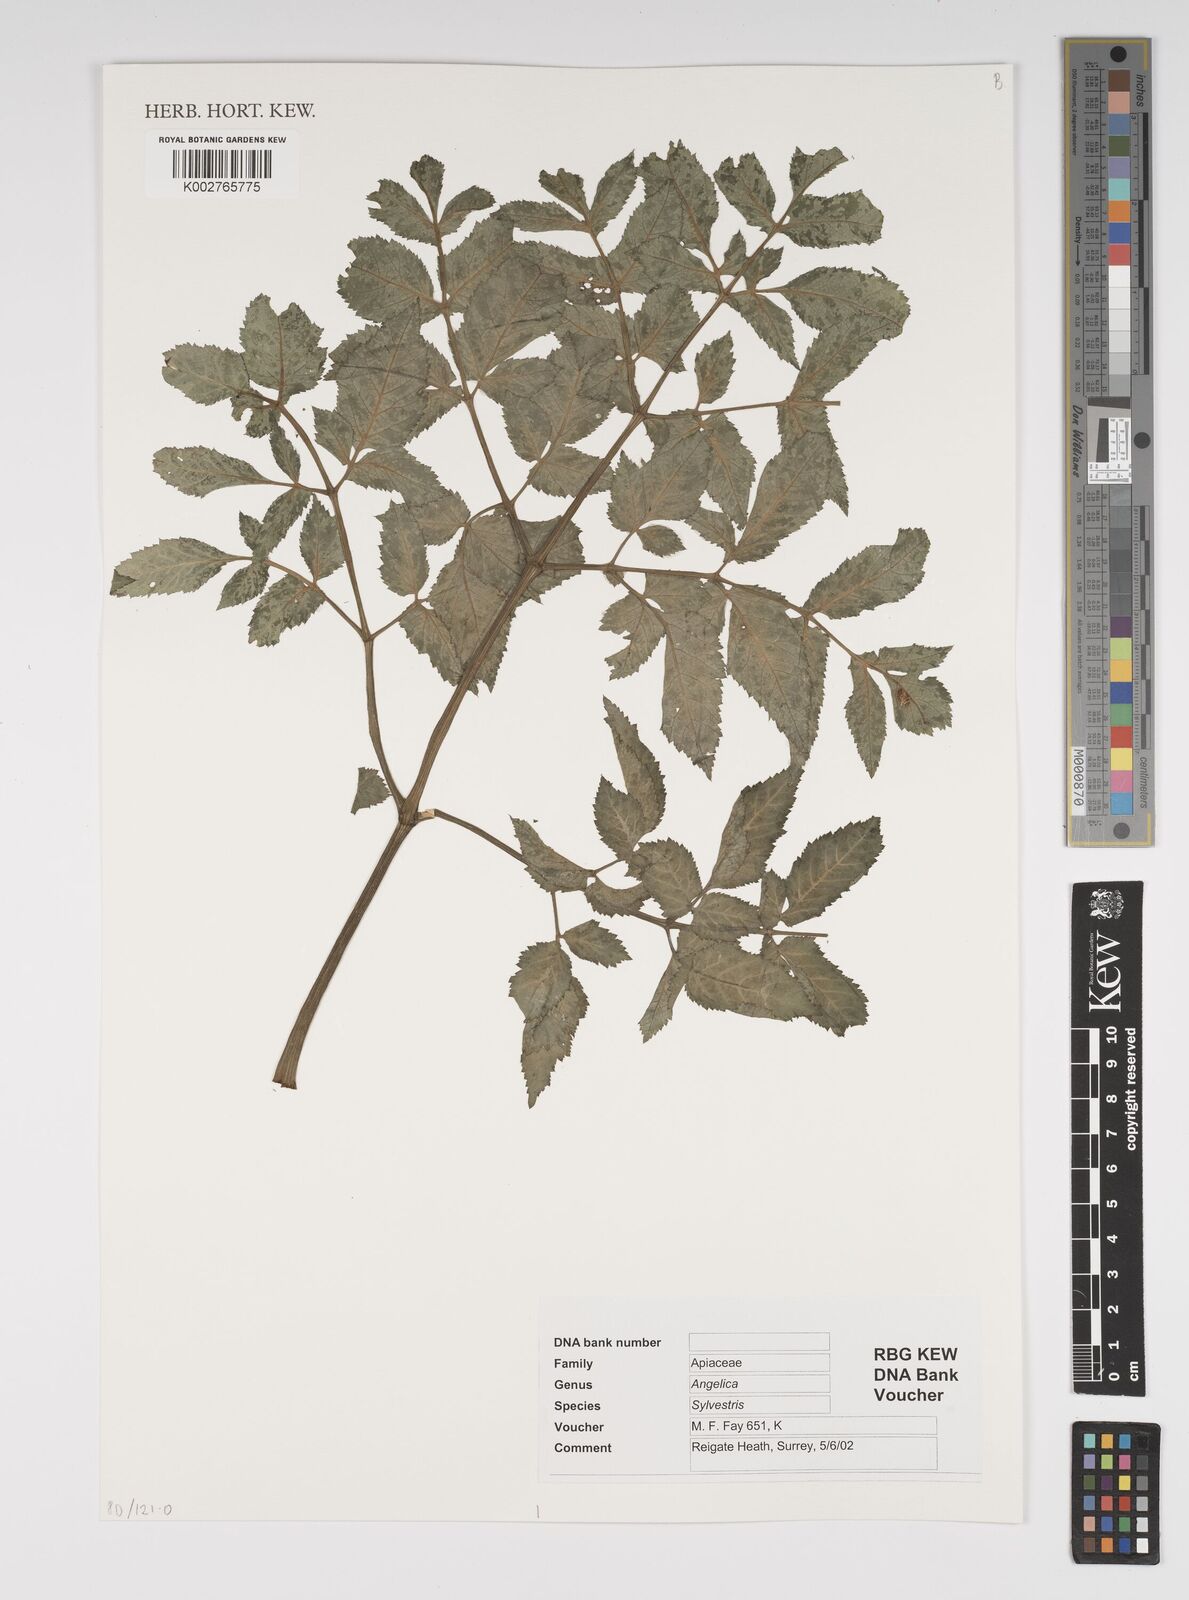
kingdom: Plantae
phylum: Tracheophyta
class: Magnoliopsida
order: Apiales
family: Apiaceae
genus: Angelica
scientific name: Angelica sylvestris
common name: Wild angelica
